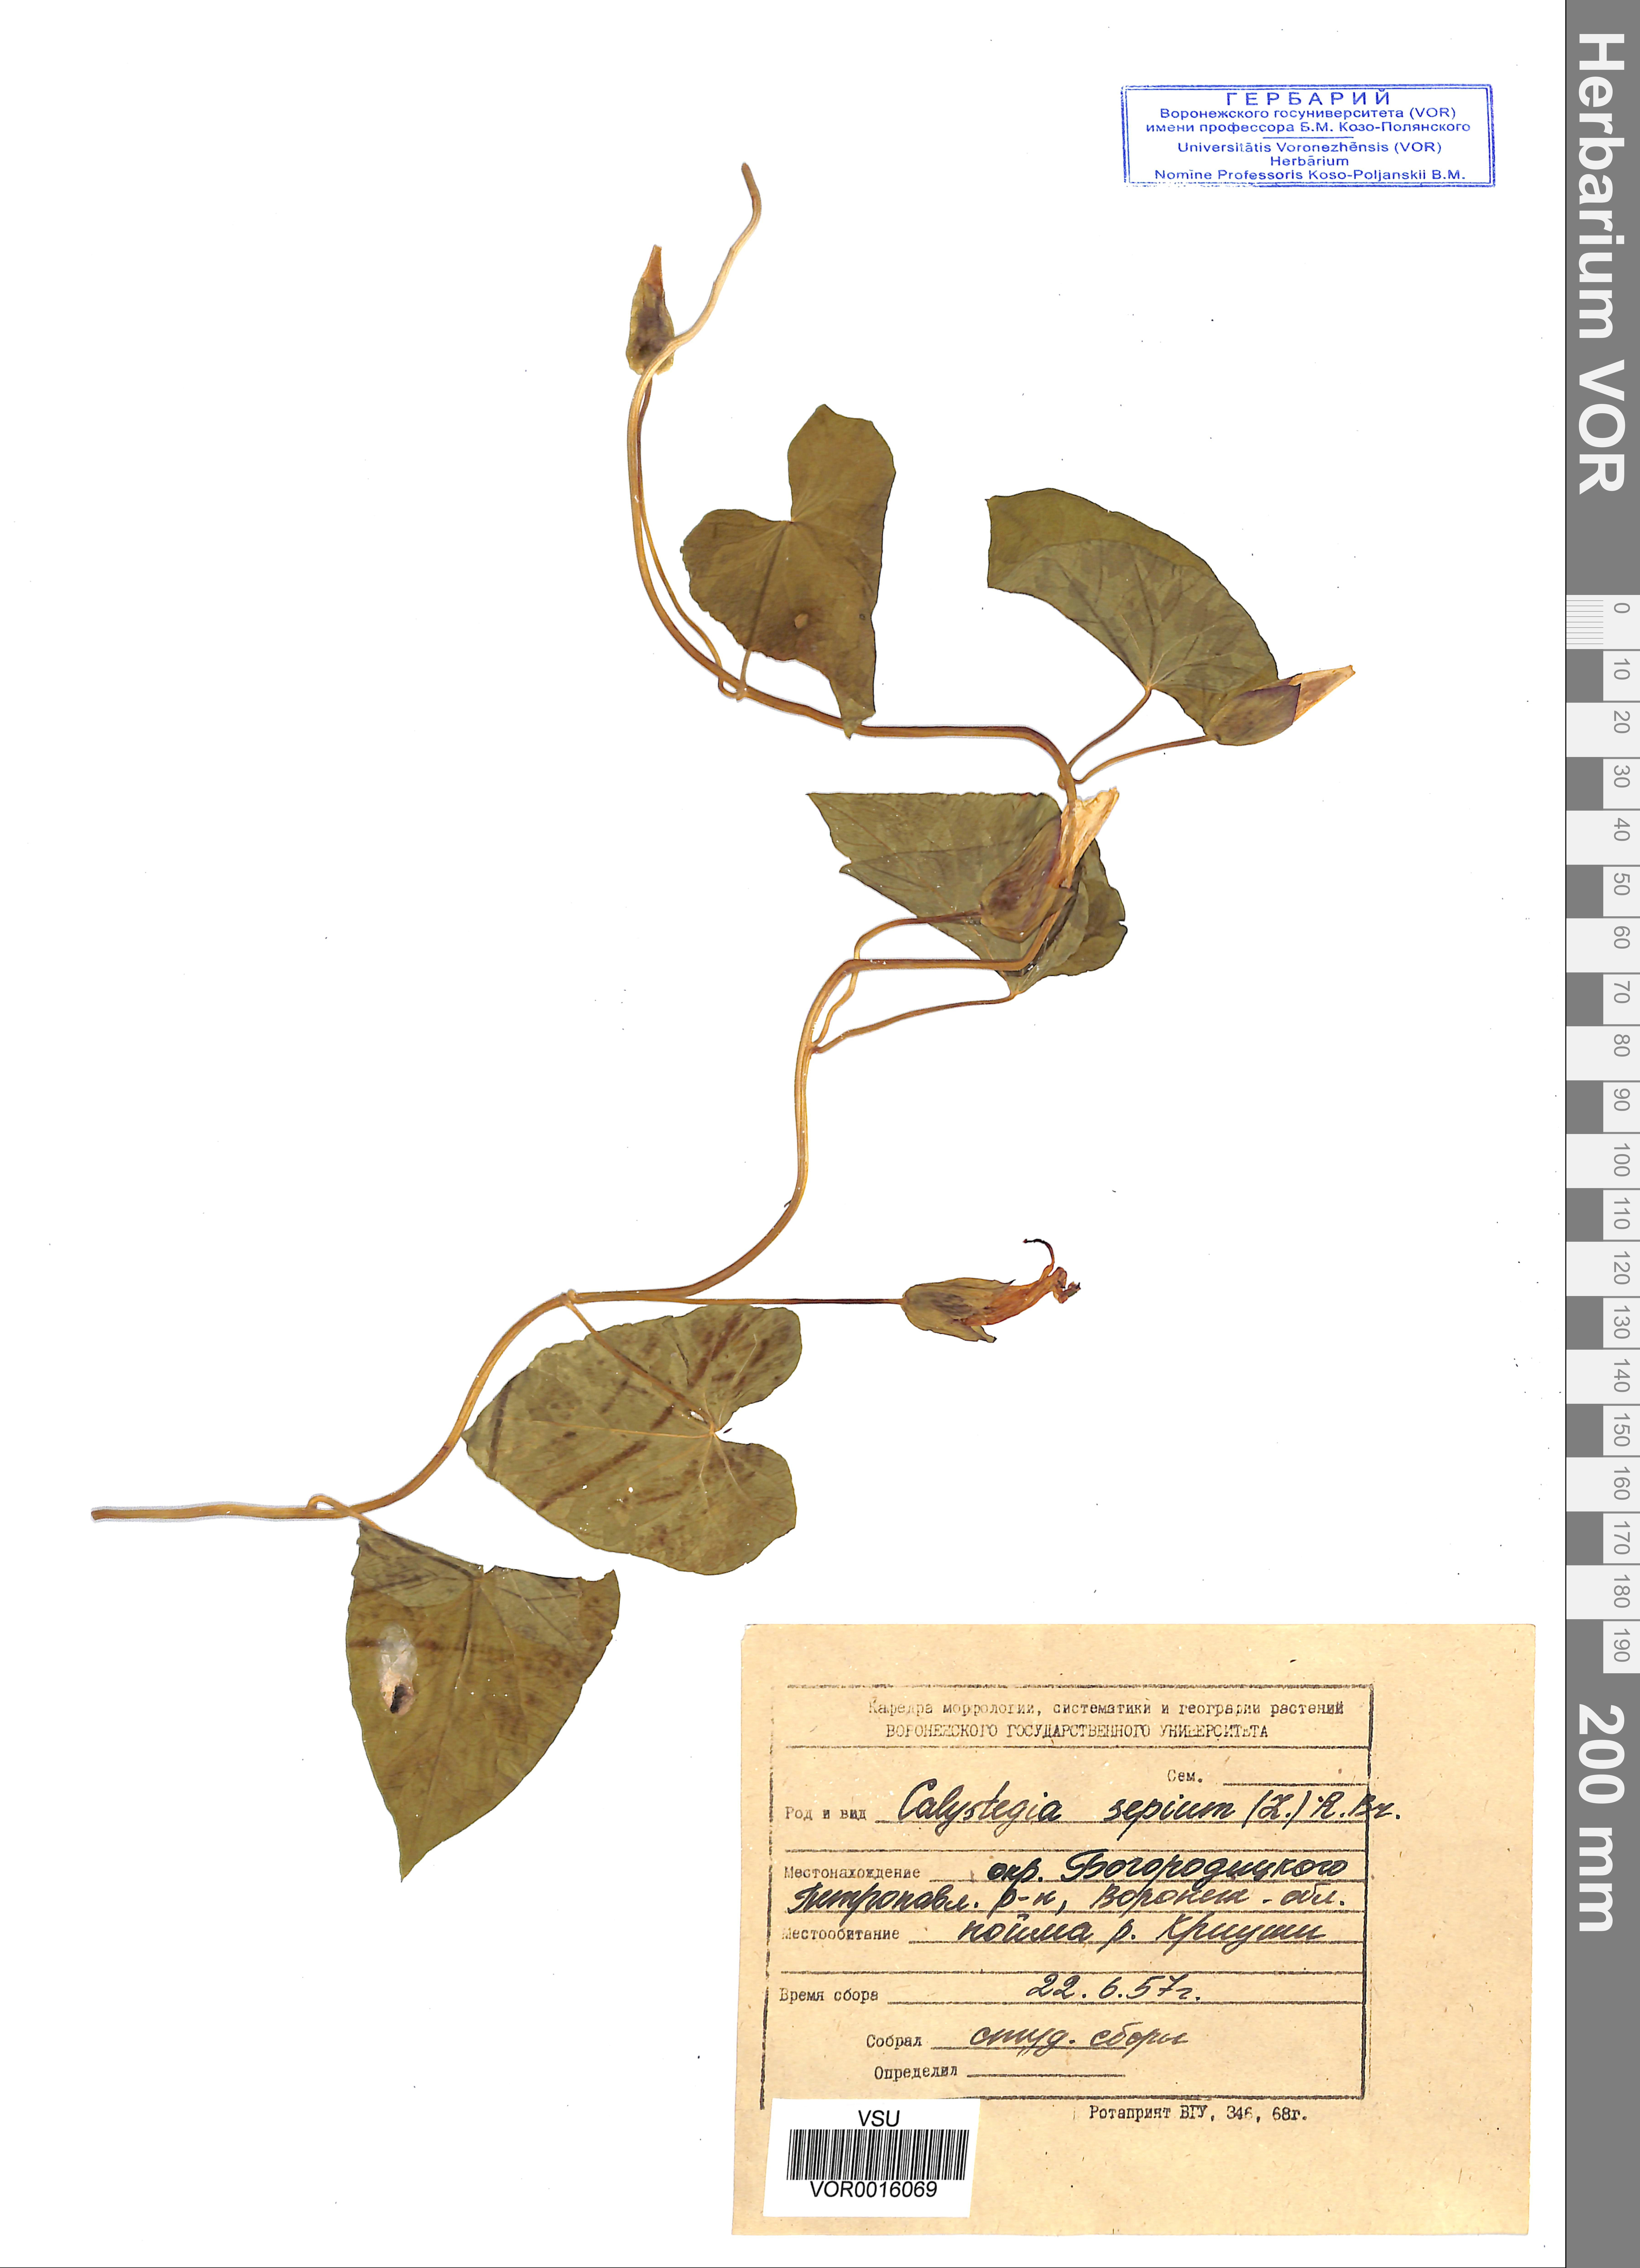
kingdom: Plantae
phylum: Tracheophyta
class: Magnoliopsida
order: Solanales
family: Convolvulaceae
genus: Calystegia
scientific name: Calystegia sepium
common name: Hedge bindweed
